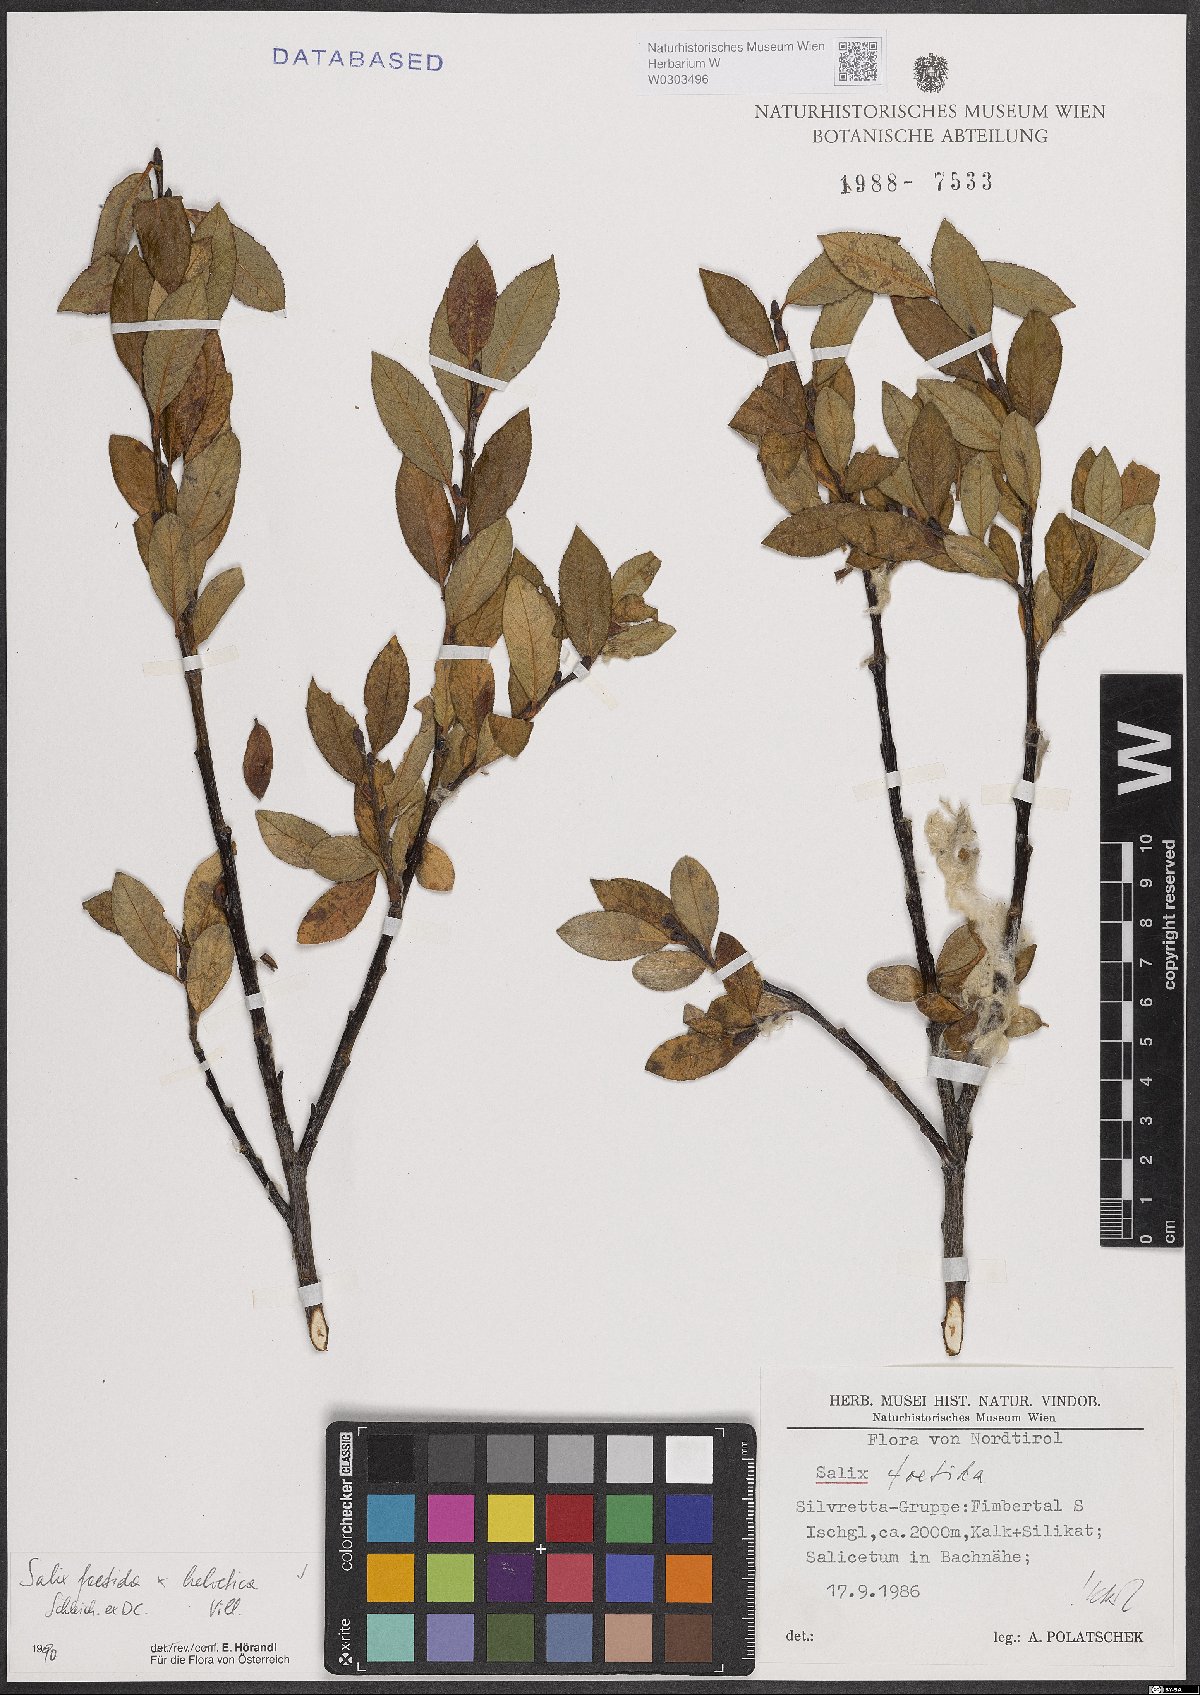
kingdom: Plantae
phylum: Tracheophyta
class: Magnoliopsida
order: Malpighiales
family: Salicaceae
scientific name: Salicaceae
